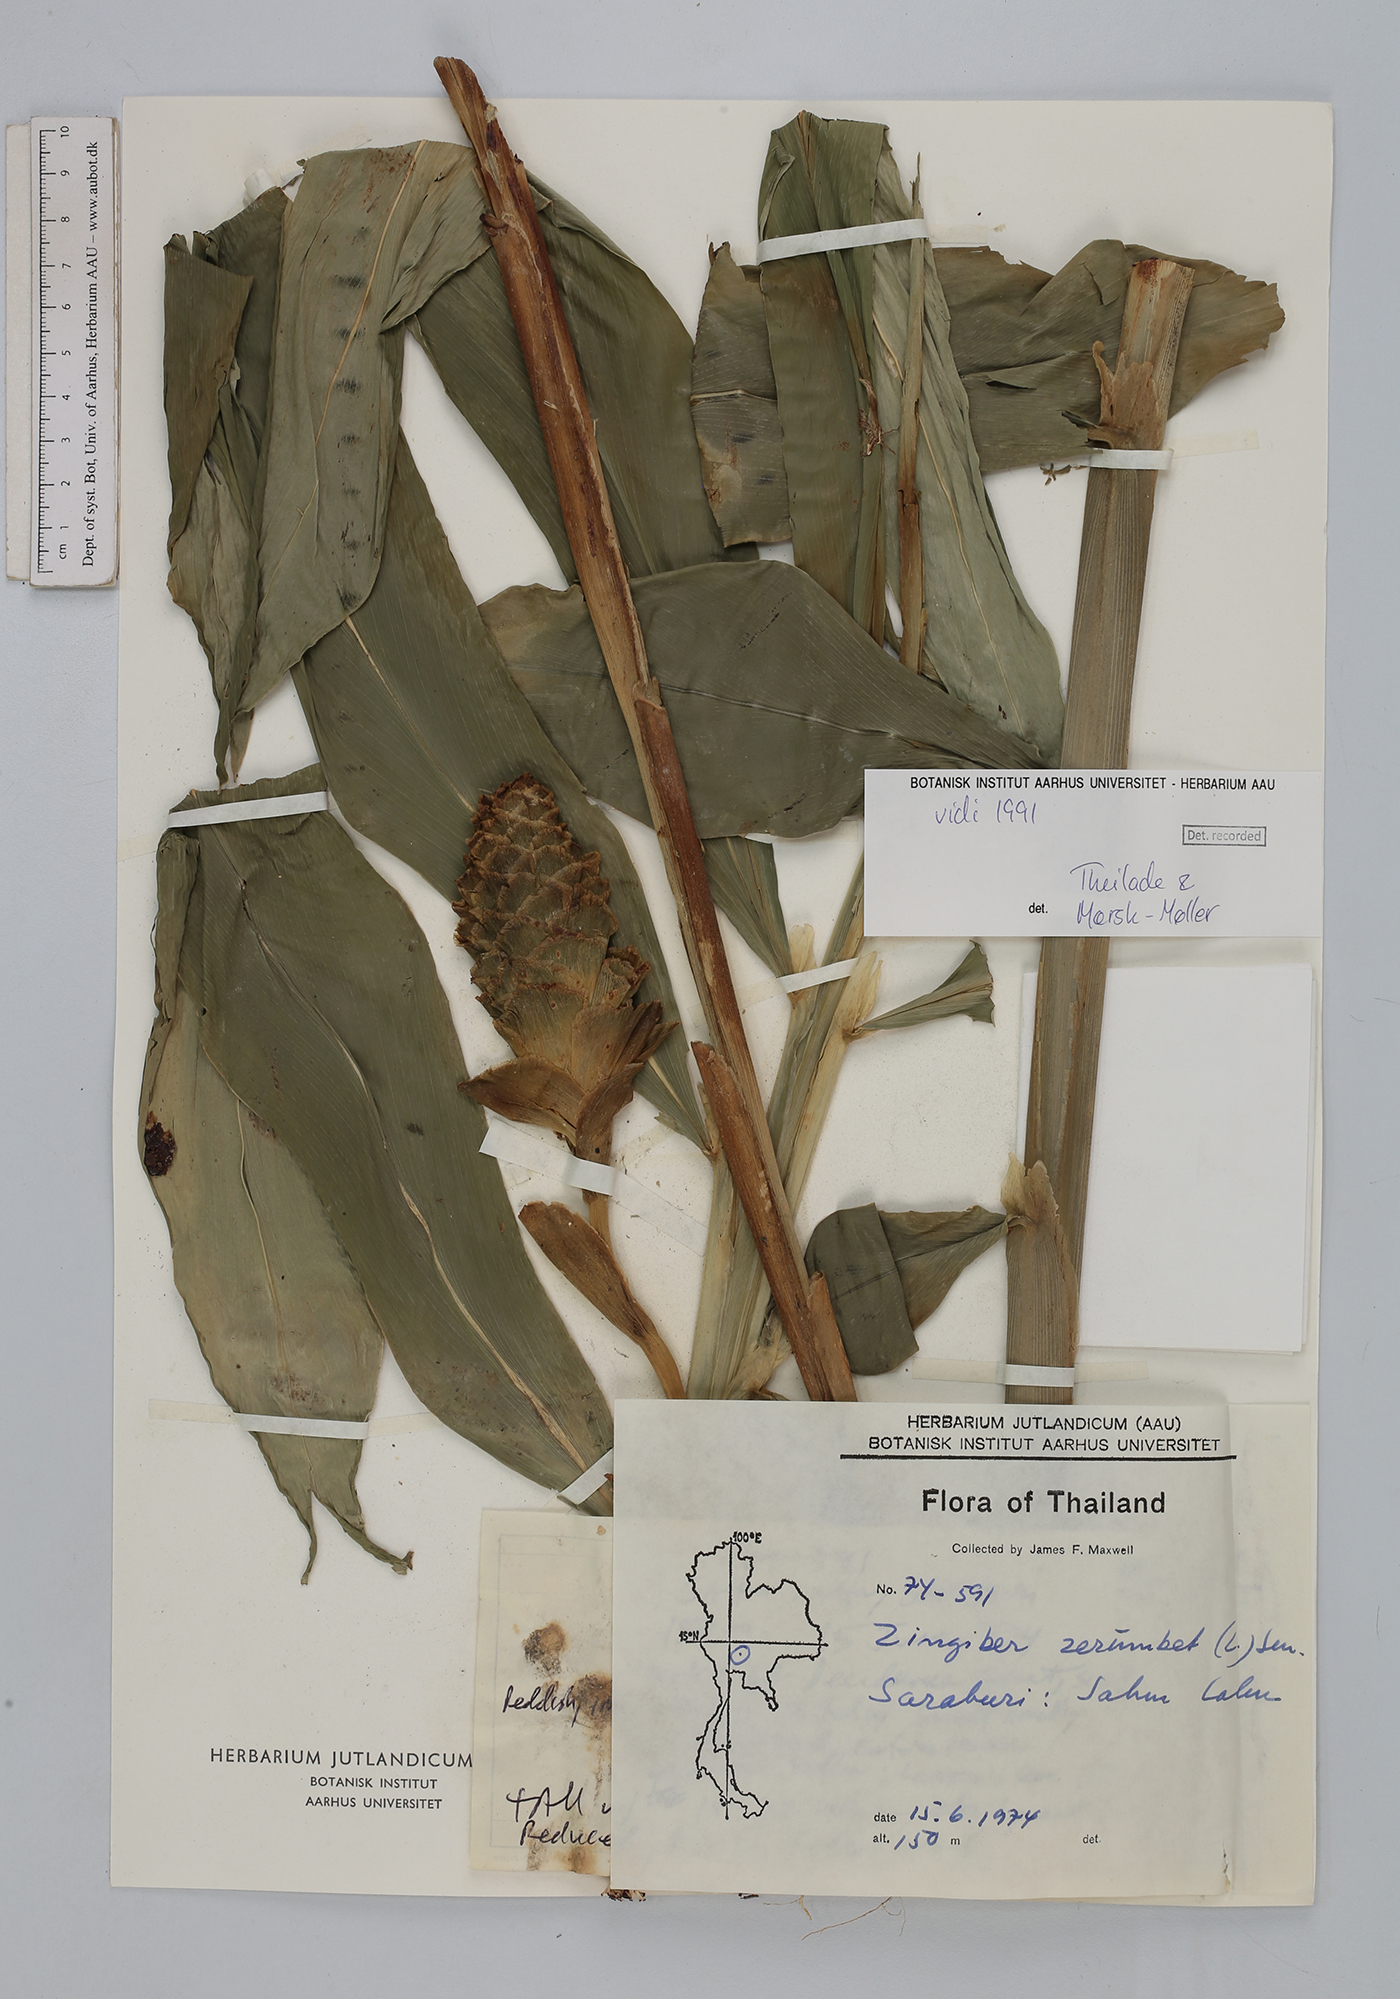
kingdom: Plantae
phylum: Tracheophyta
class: Liliopsida
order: Zingiberales
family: Zingiberaceae
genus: Zingiber
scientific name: Zingiber zerumbet
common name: Bitter ginger
